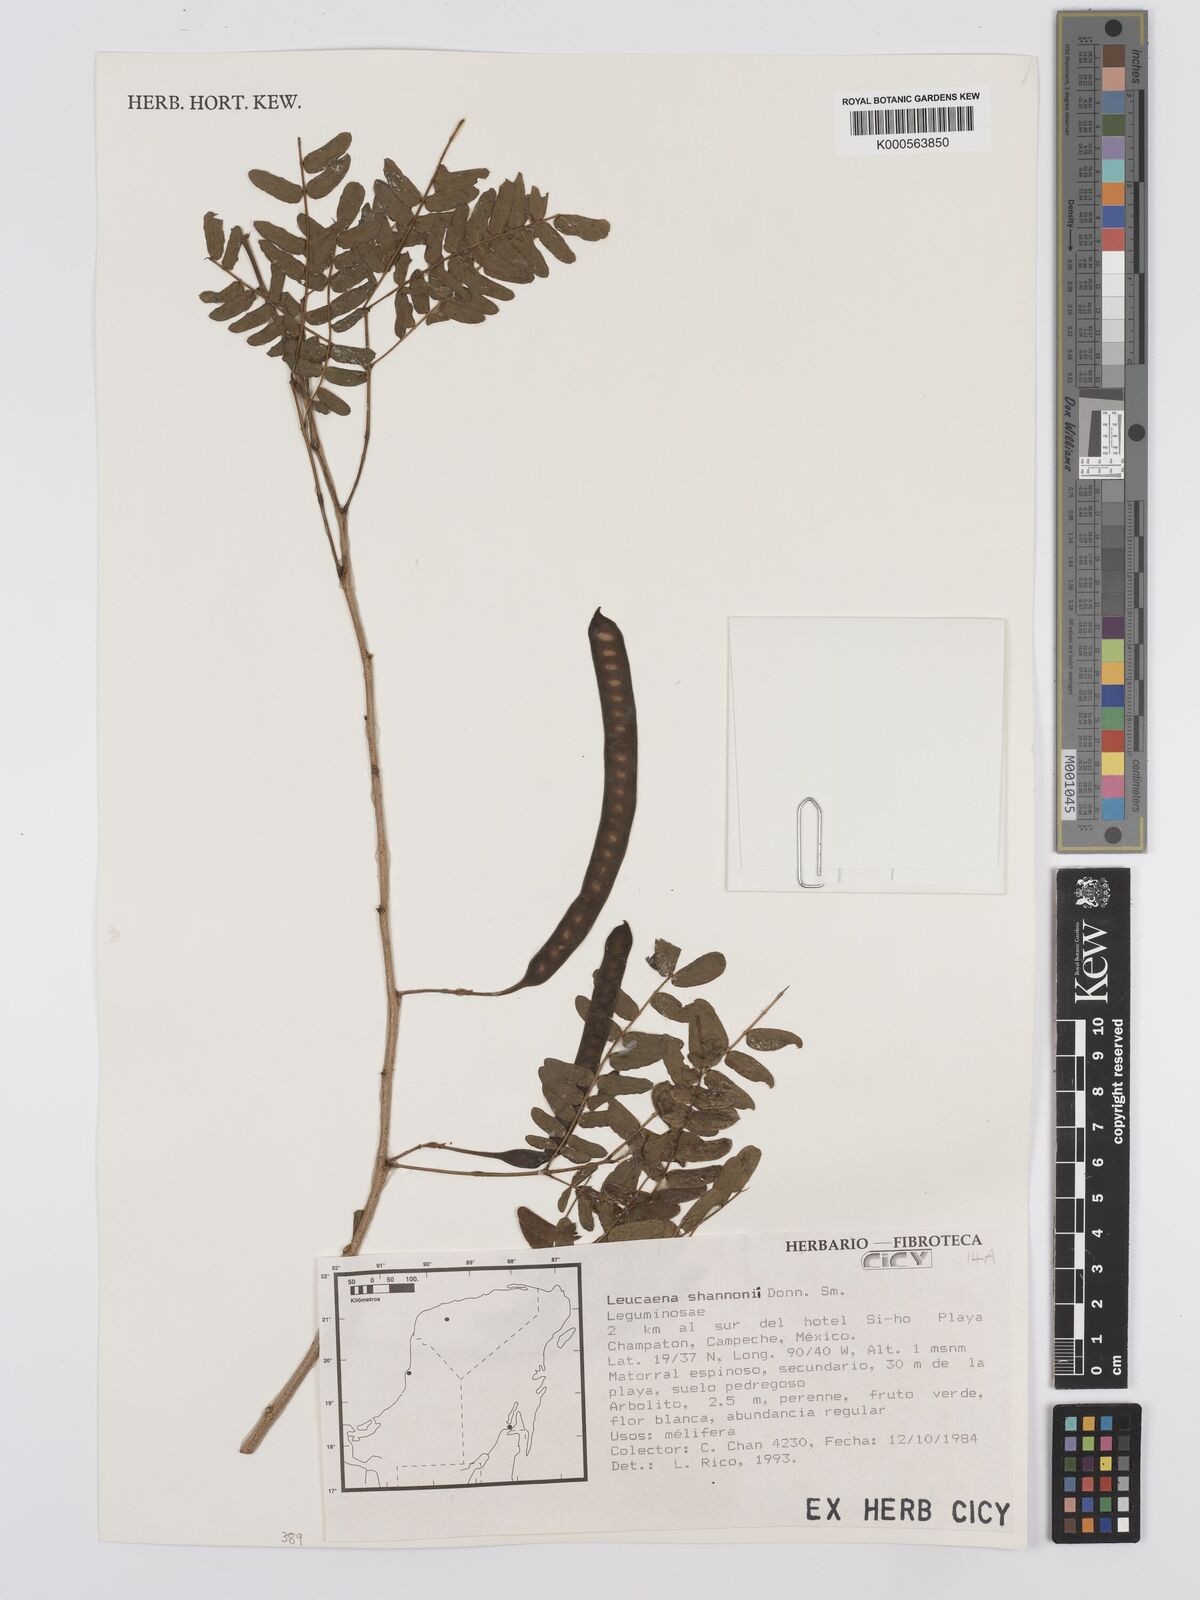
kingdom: Plantae
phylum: Tracheophyta
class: Magnoliopsida
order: Fabales
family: Fabaceae
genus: Leucaena
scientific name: Leucaena shannonii
